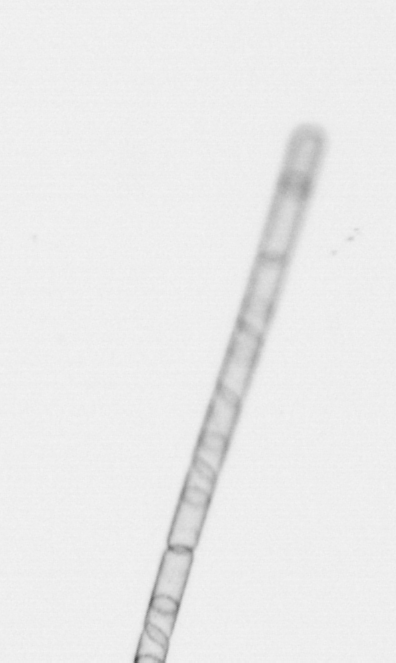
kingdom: Chromista
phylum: Ochrophyta
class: Bacillariophyceae
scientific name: Bacillariophyceae
